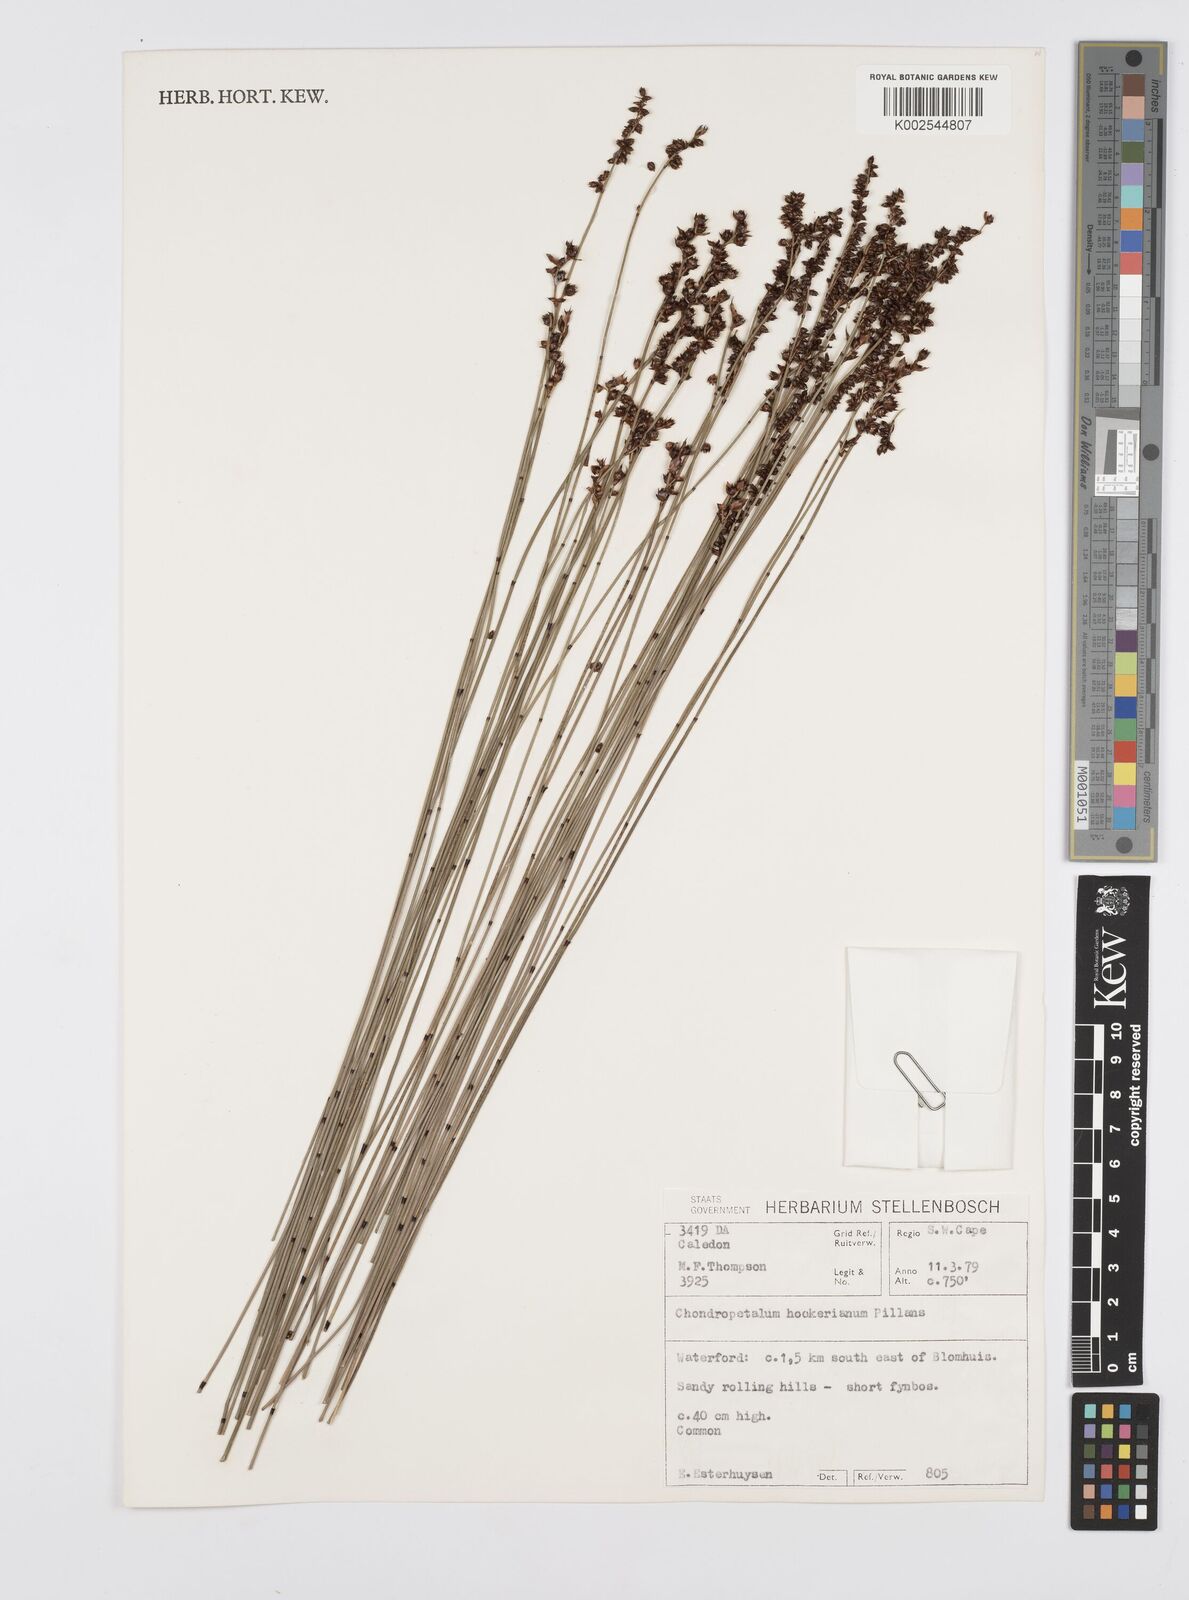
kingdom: Plantae
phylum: Tracheophyta
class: Liliopsida
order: Poales
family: Restionaceae
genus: Elegia
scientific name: Elegia hookeriana
